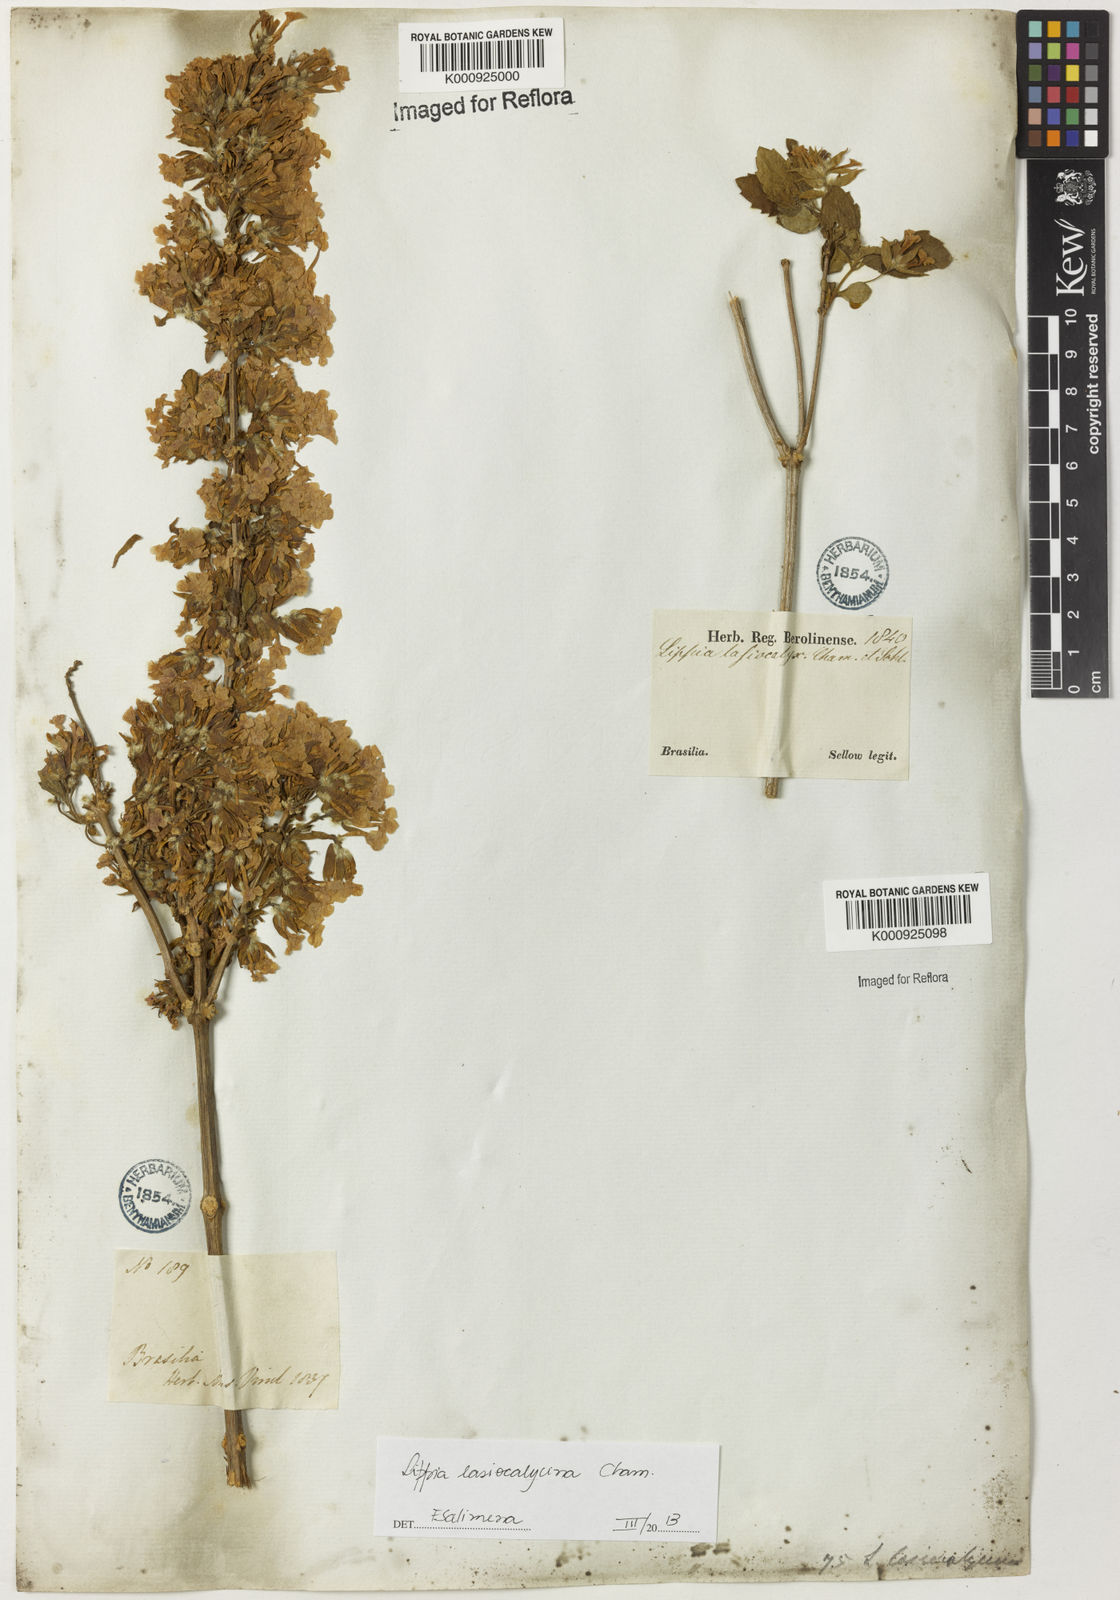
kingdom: Plantae
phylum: Tracheophyta
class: Magnoliopsida
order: Lamiales
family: Verbenaceae
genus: Lippia
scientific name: Lippia lasiocalycina
